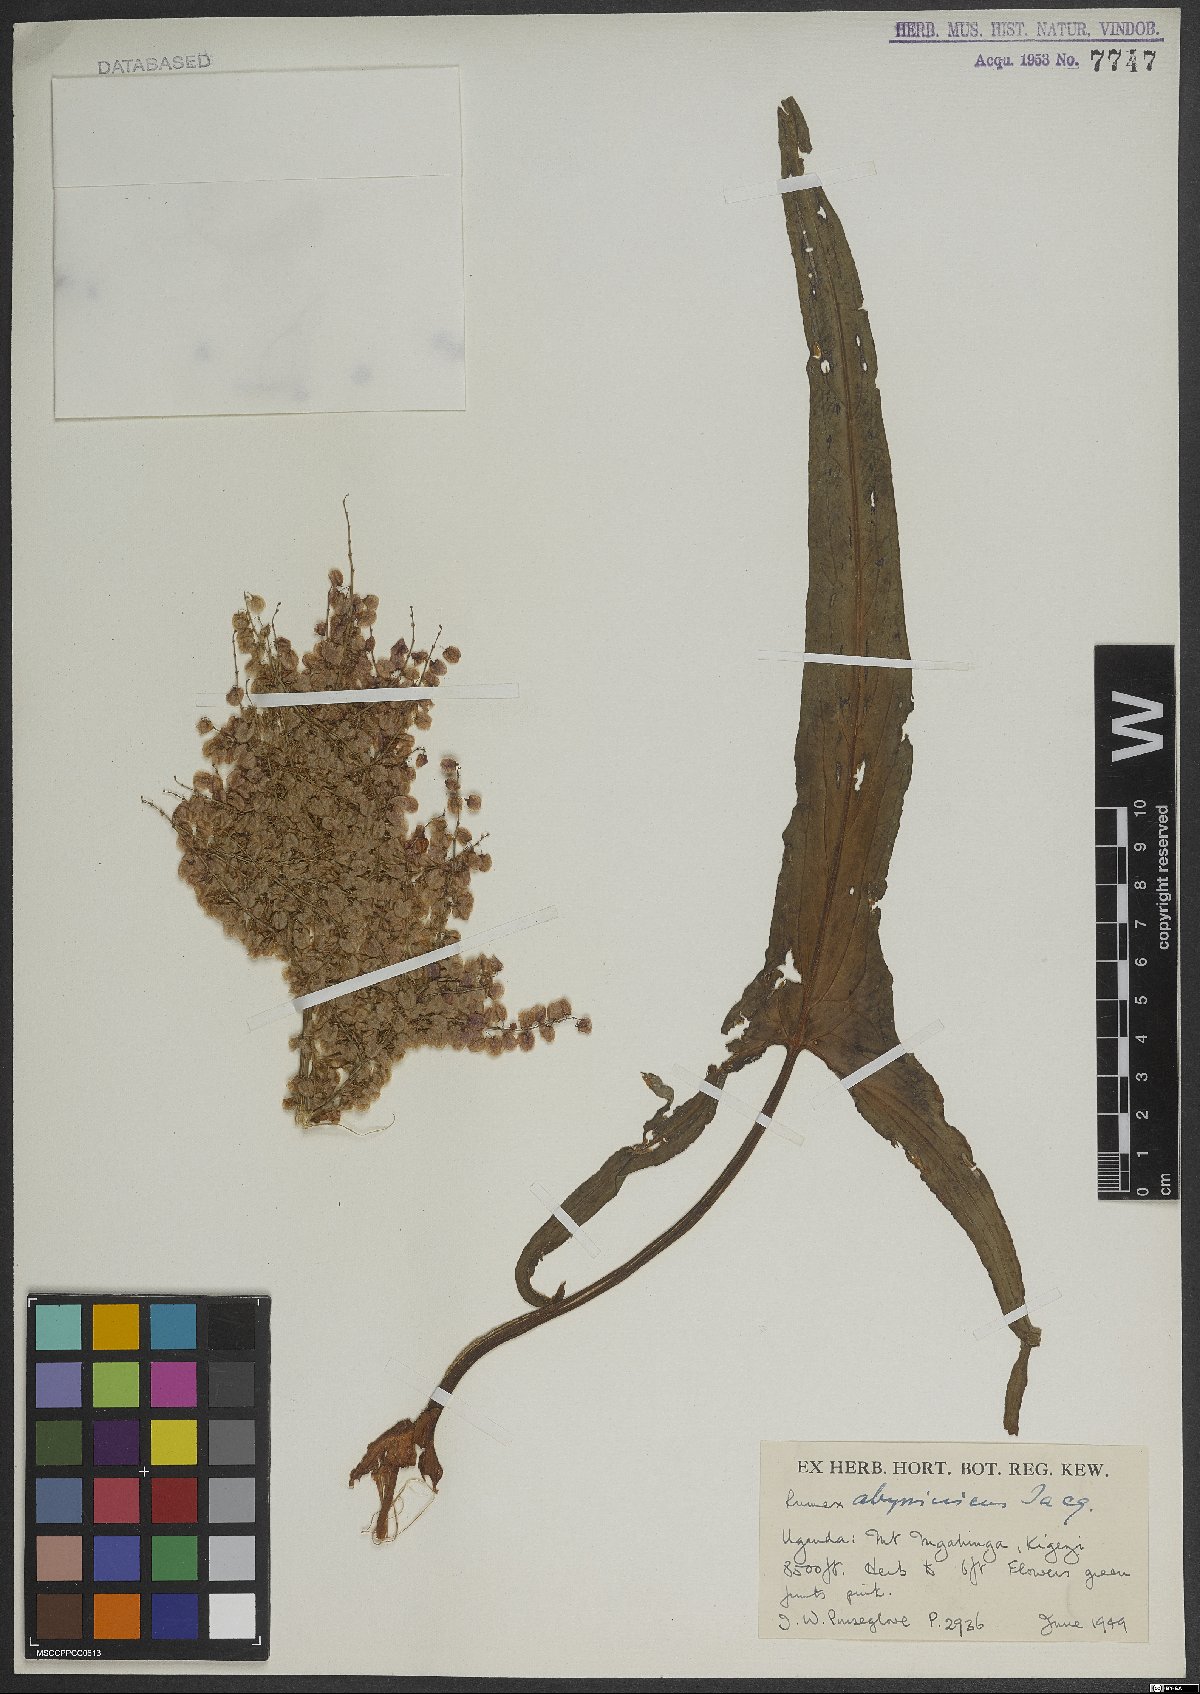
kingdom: Plantae
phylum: Tracheophyta
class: Magnoliopsida
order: Caryophyllales
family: Polygonaceae
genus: Rumex
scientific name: Rumex abyssinicus
